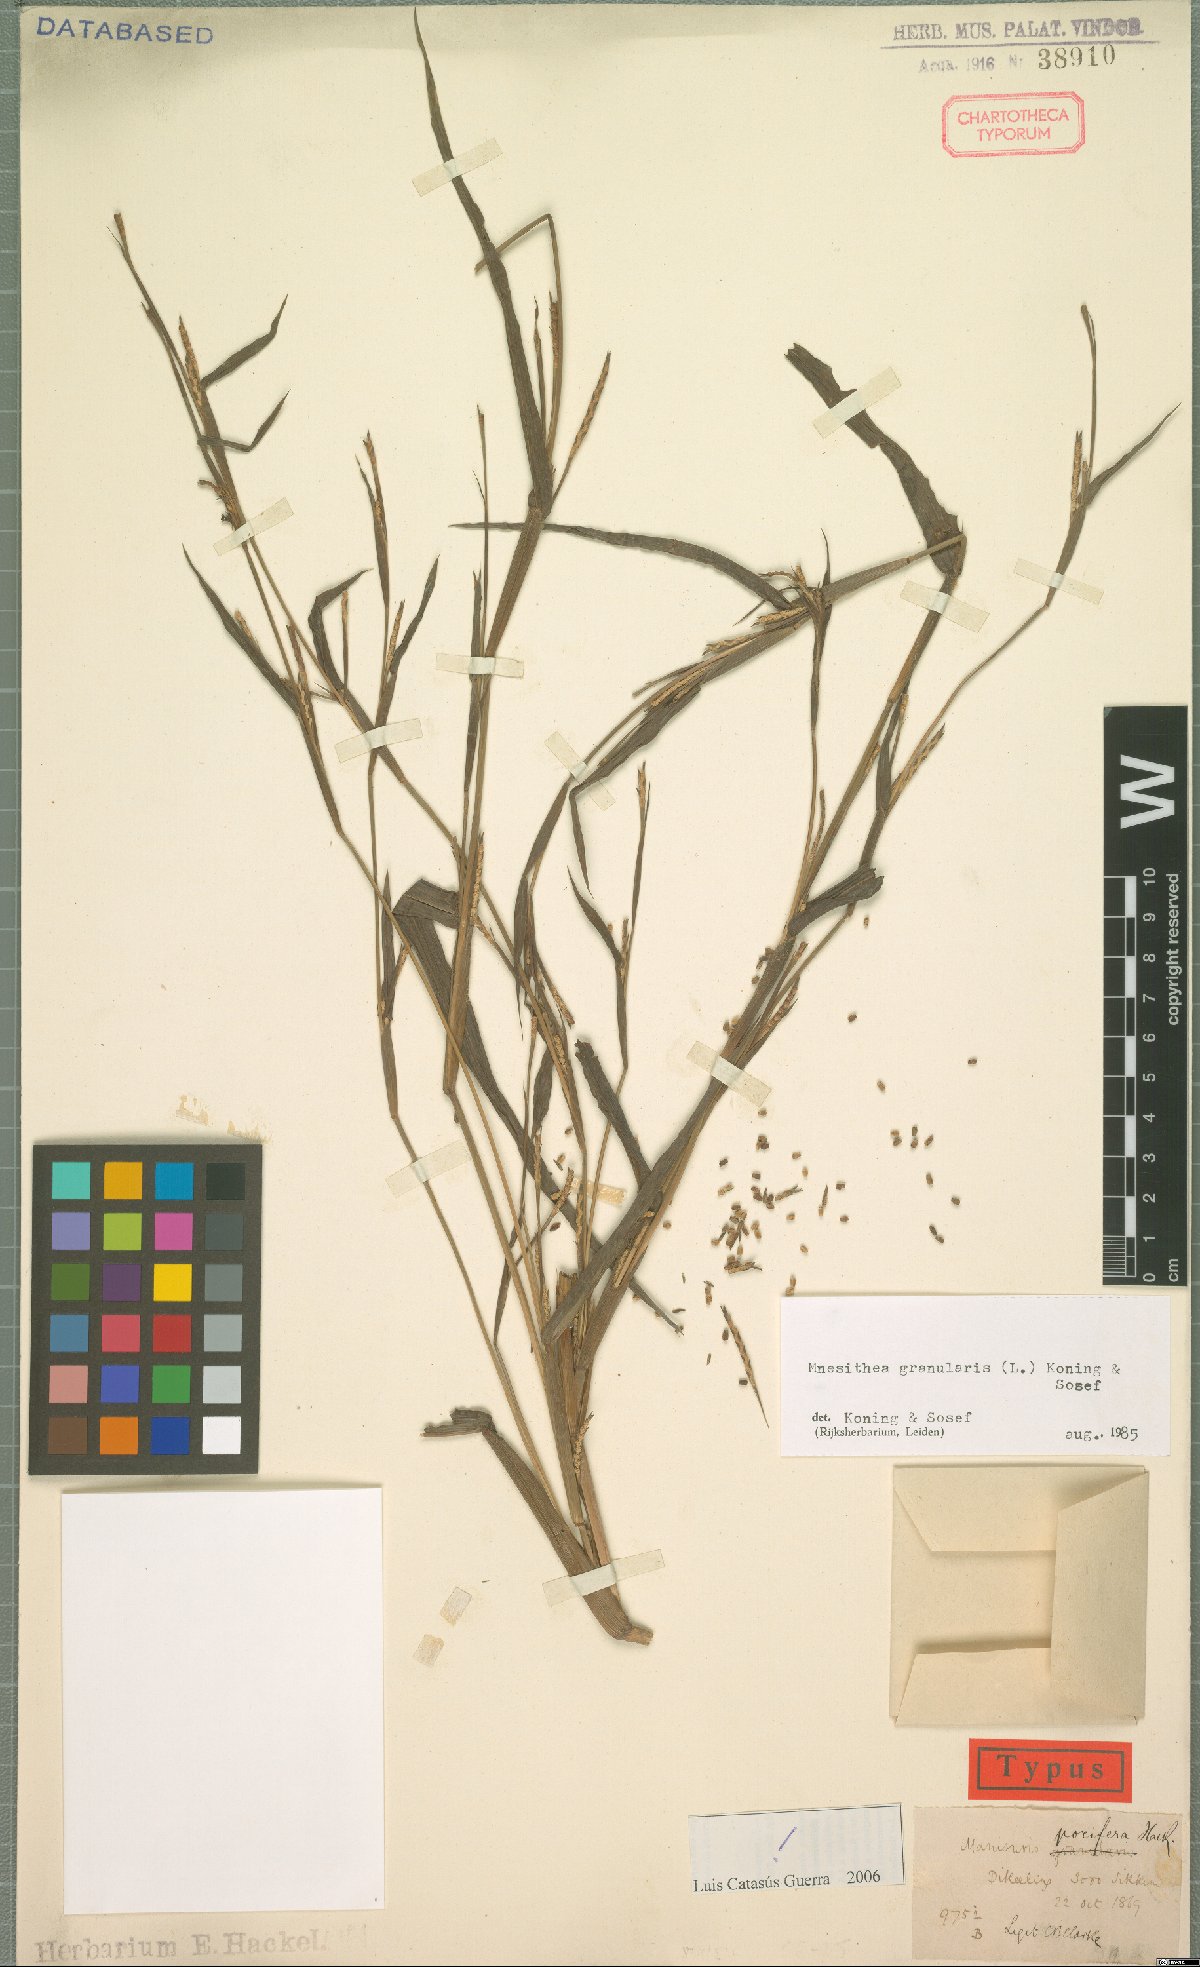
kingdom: Plantae
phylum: Tracheophyta
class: Liliopsida
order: Poales
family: Poaceae
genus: Hackelochloa
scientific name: Hackelochloa granularis
